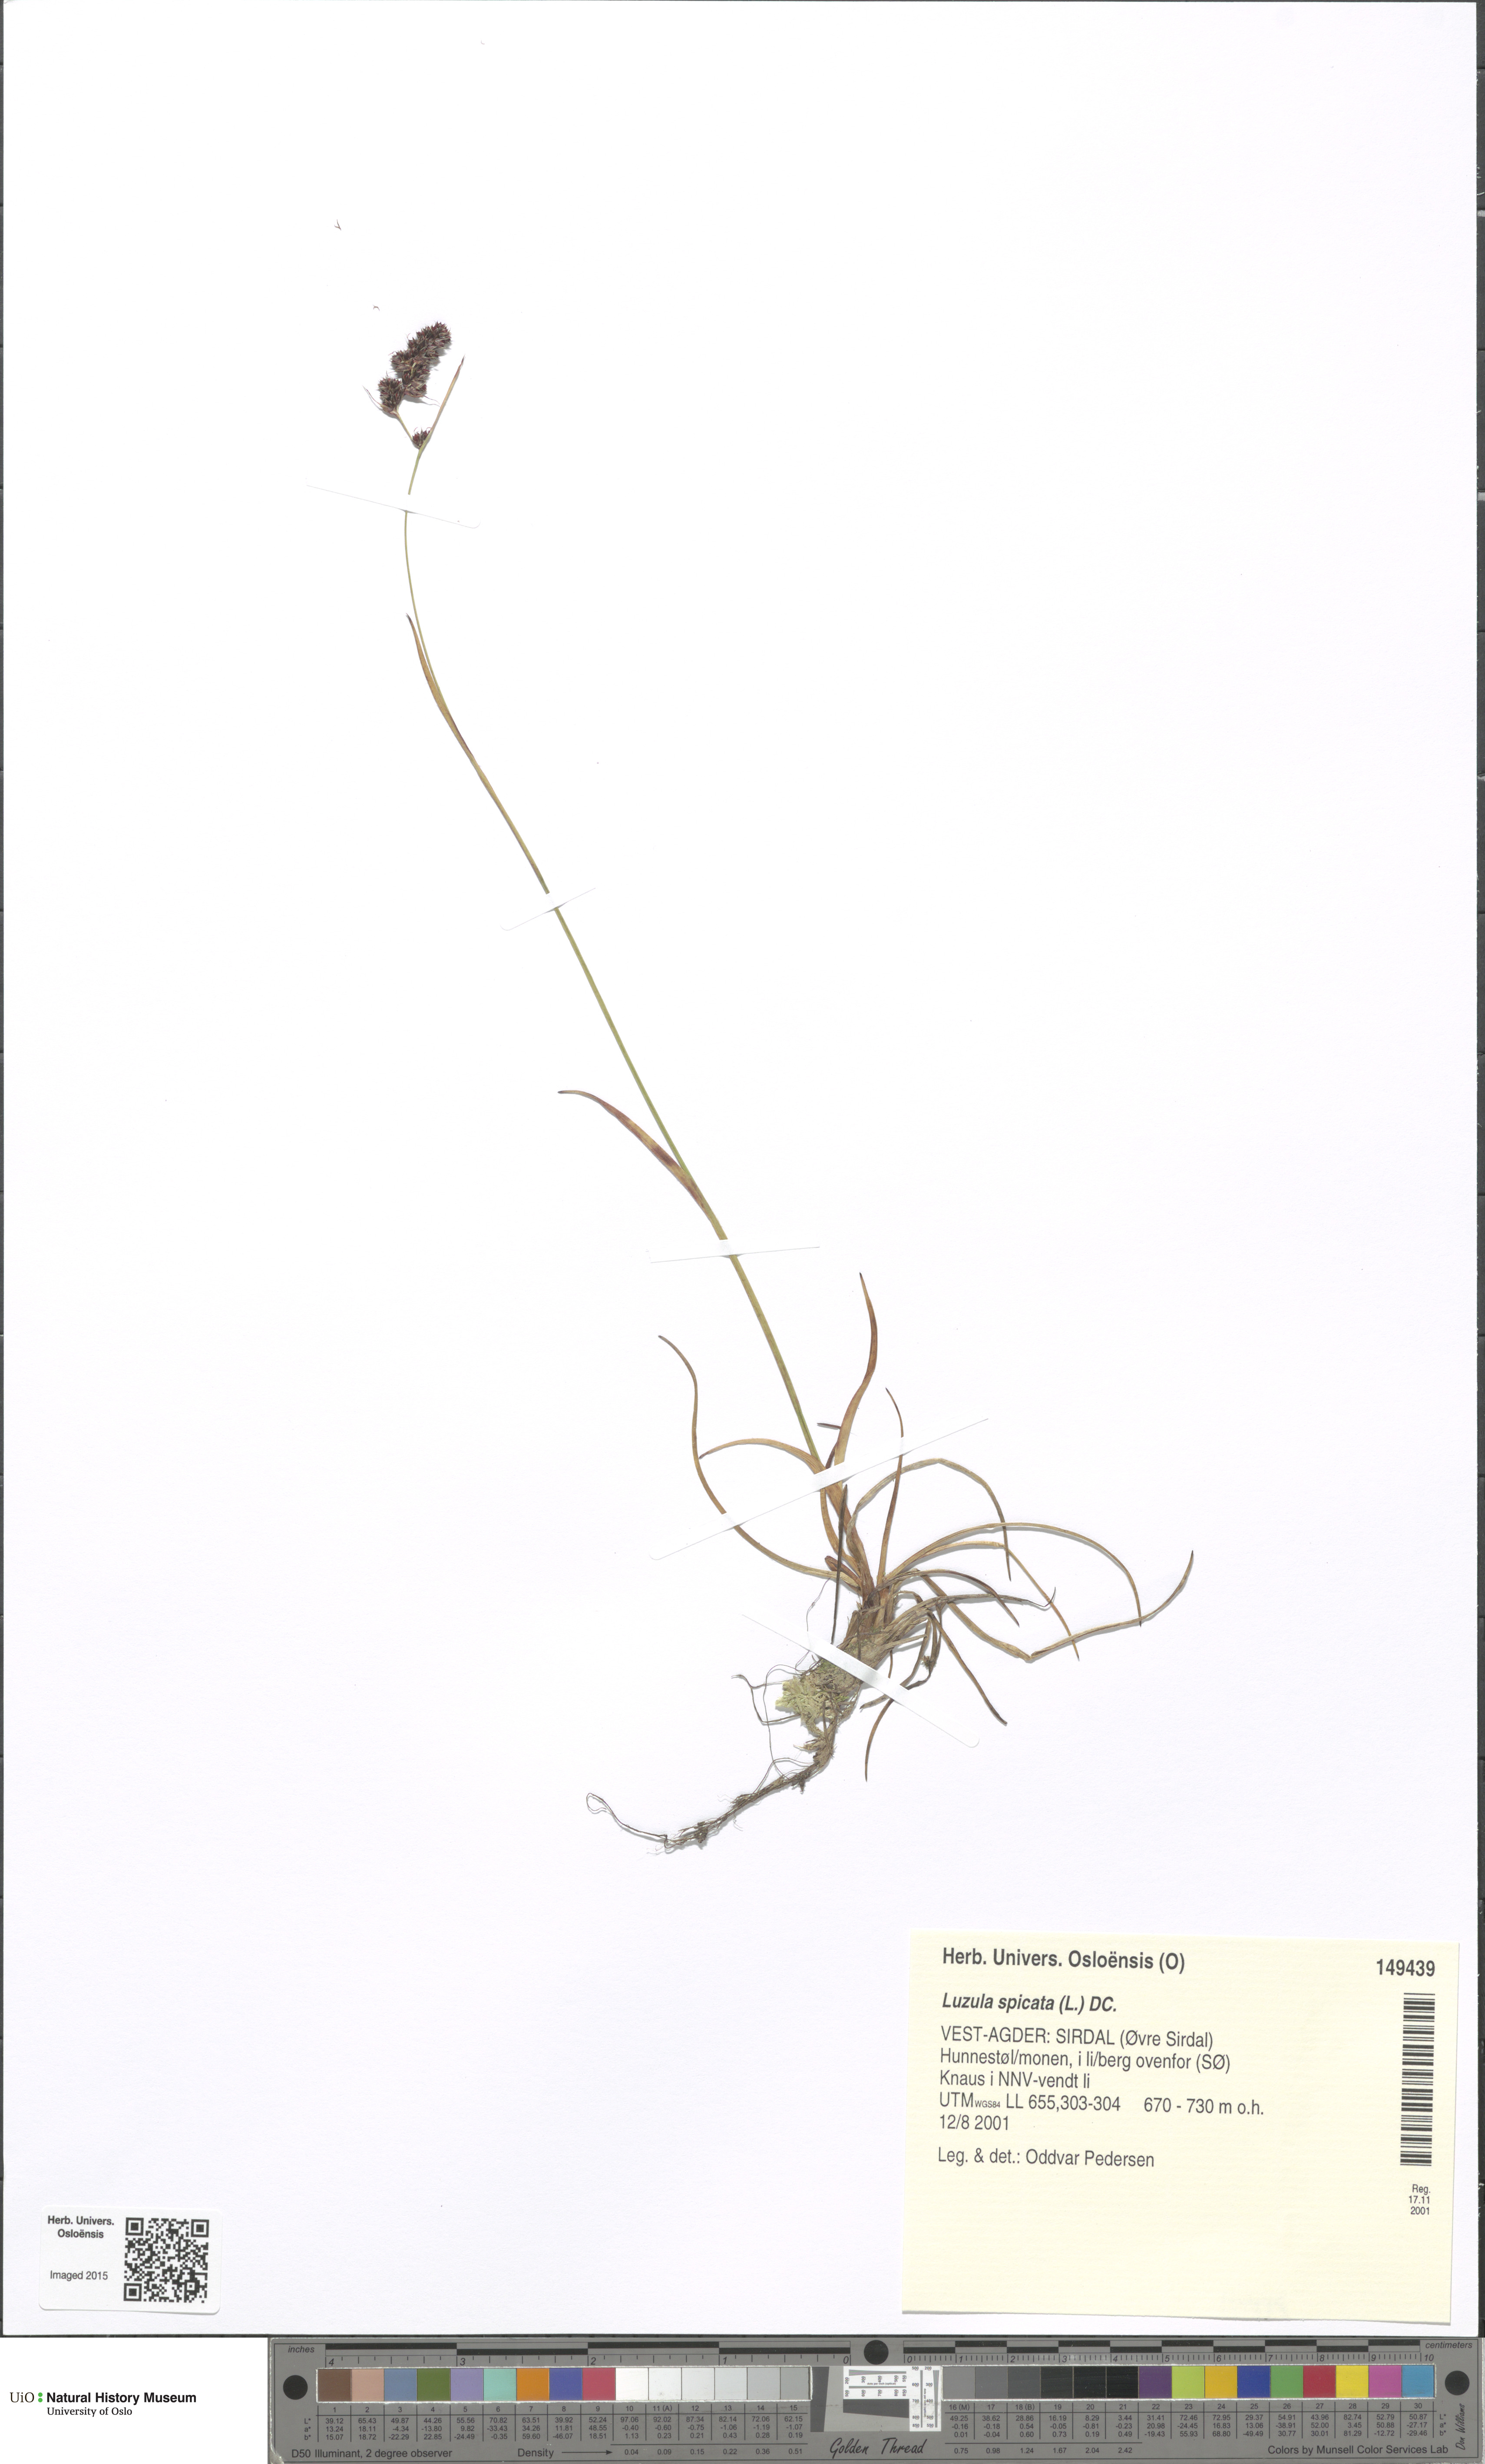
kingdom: Plantae
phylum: Tracheophyta
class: Liliopsida
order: Poales
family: Juncaceae
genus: Luzula
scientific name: Luzula spicata
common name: Spiked wood-rush
